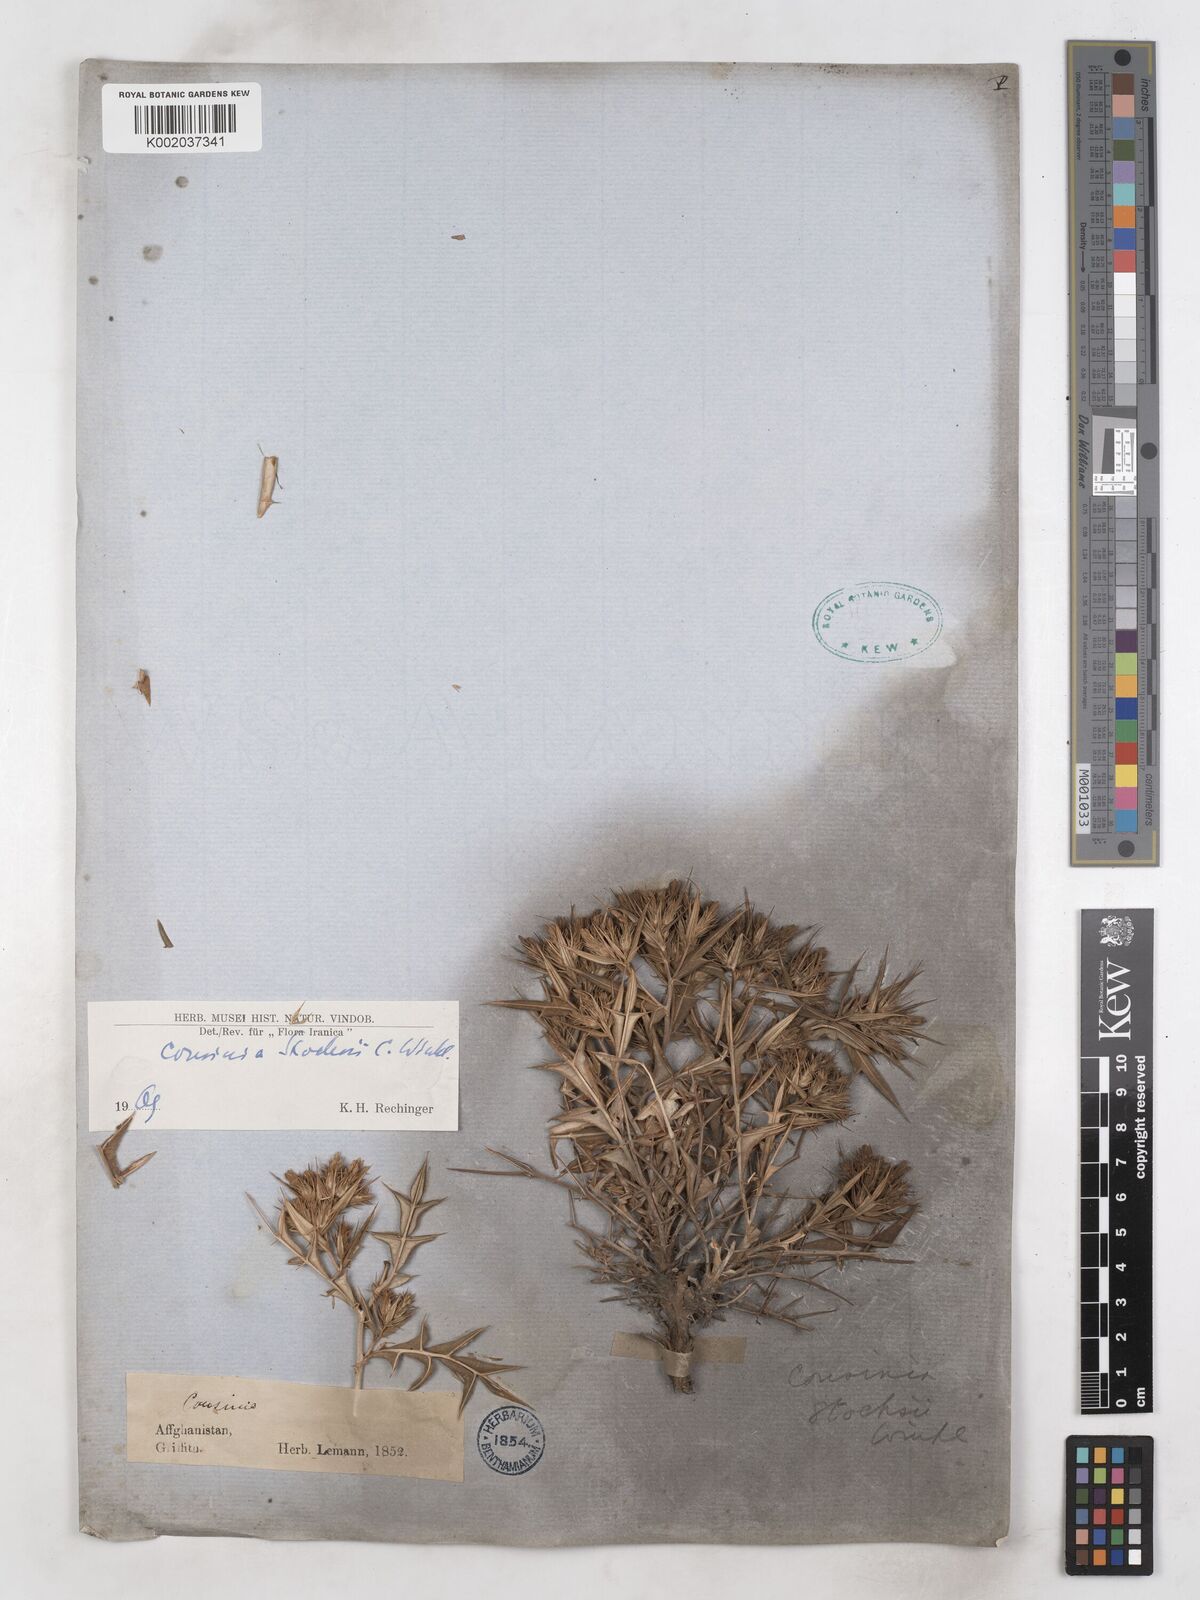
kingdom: Plantae
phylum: Tracheophyta
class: Magnoliopsida
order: Asterales
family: Asteraceae
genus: Cousinia
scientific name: Cousinia stocksii
